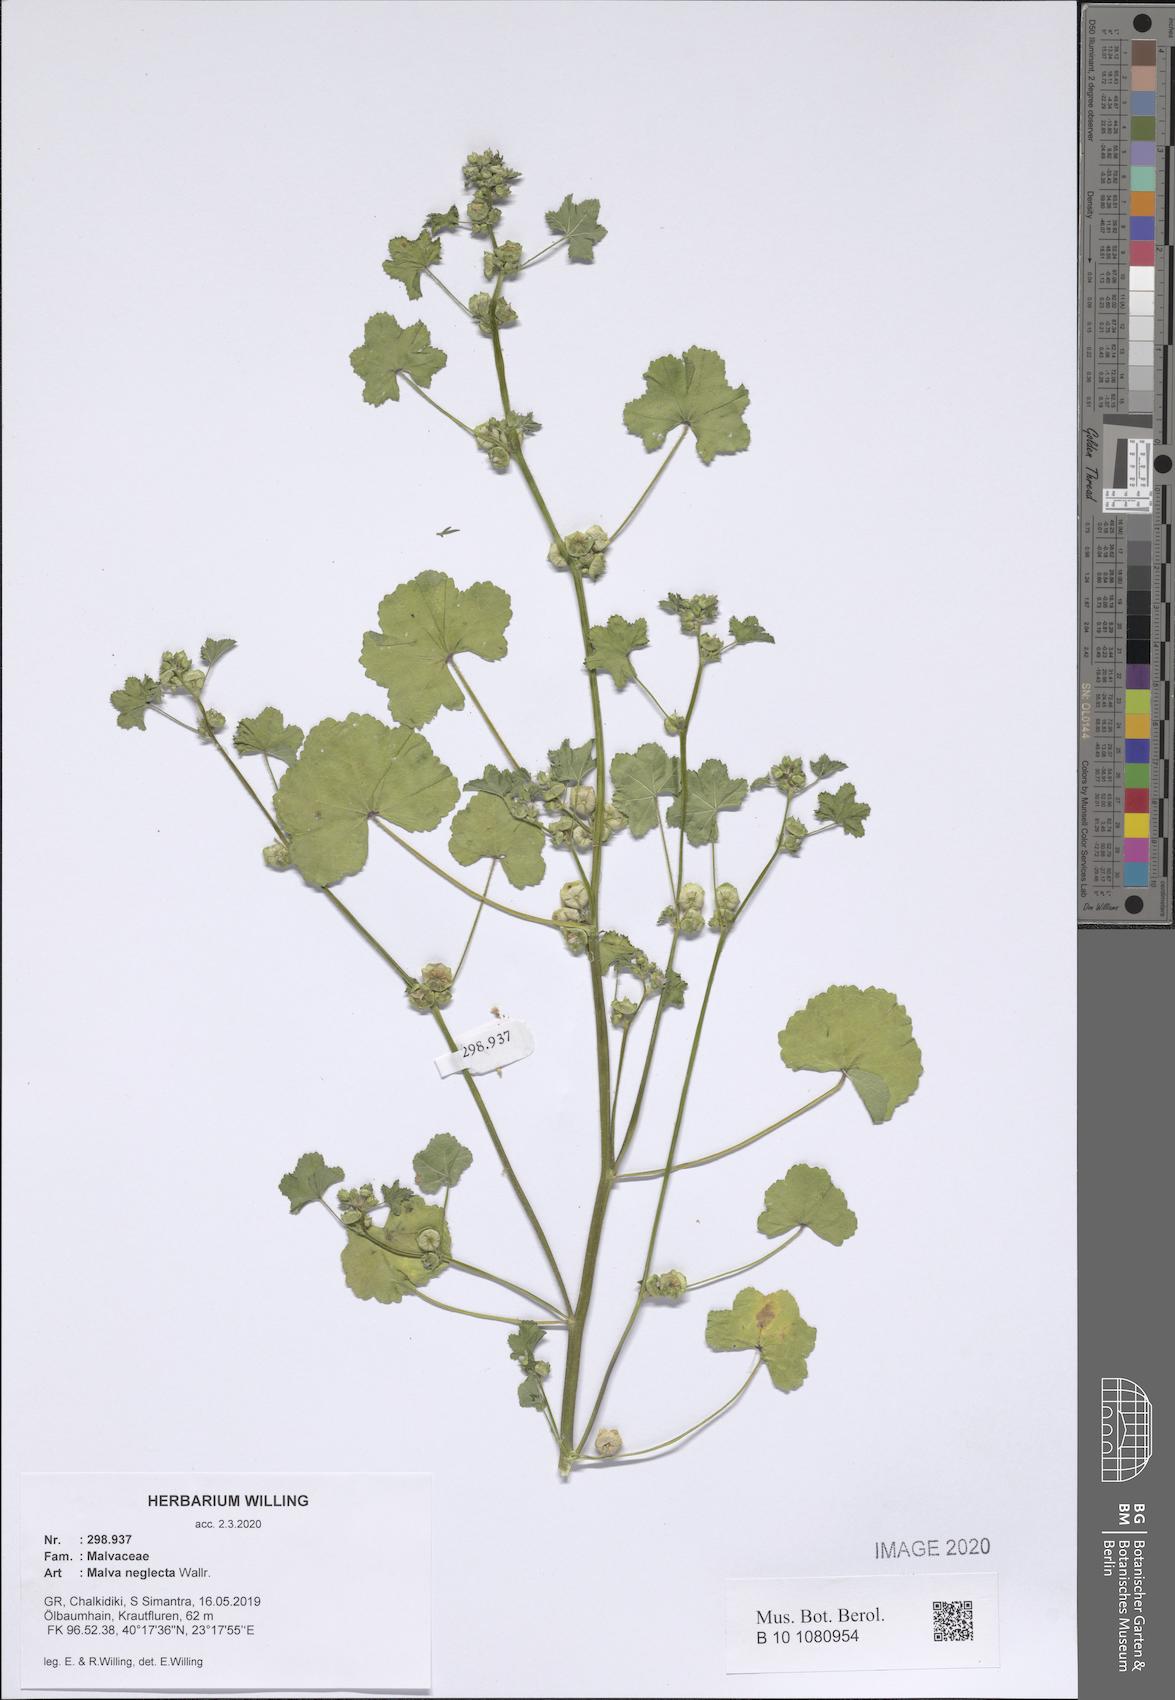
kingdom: Plantae
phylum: Tracheophyta
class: Magnoliopsida
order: Malvales
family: Malvaceae
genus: Malva
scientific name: Malva neglecta
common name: Common mallow
